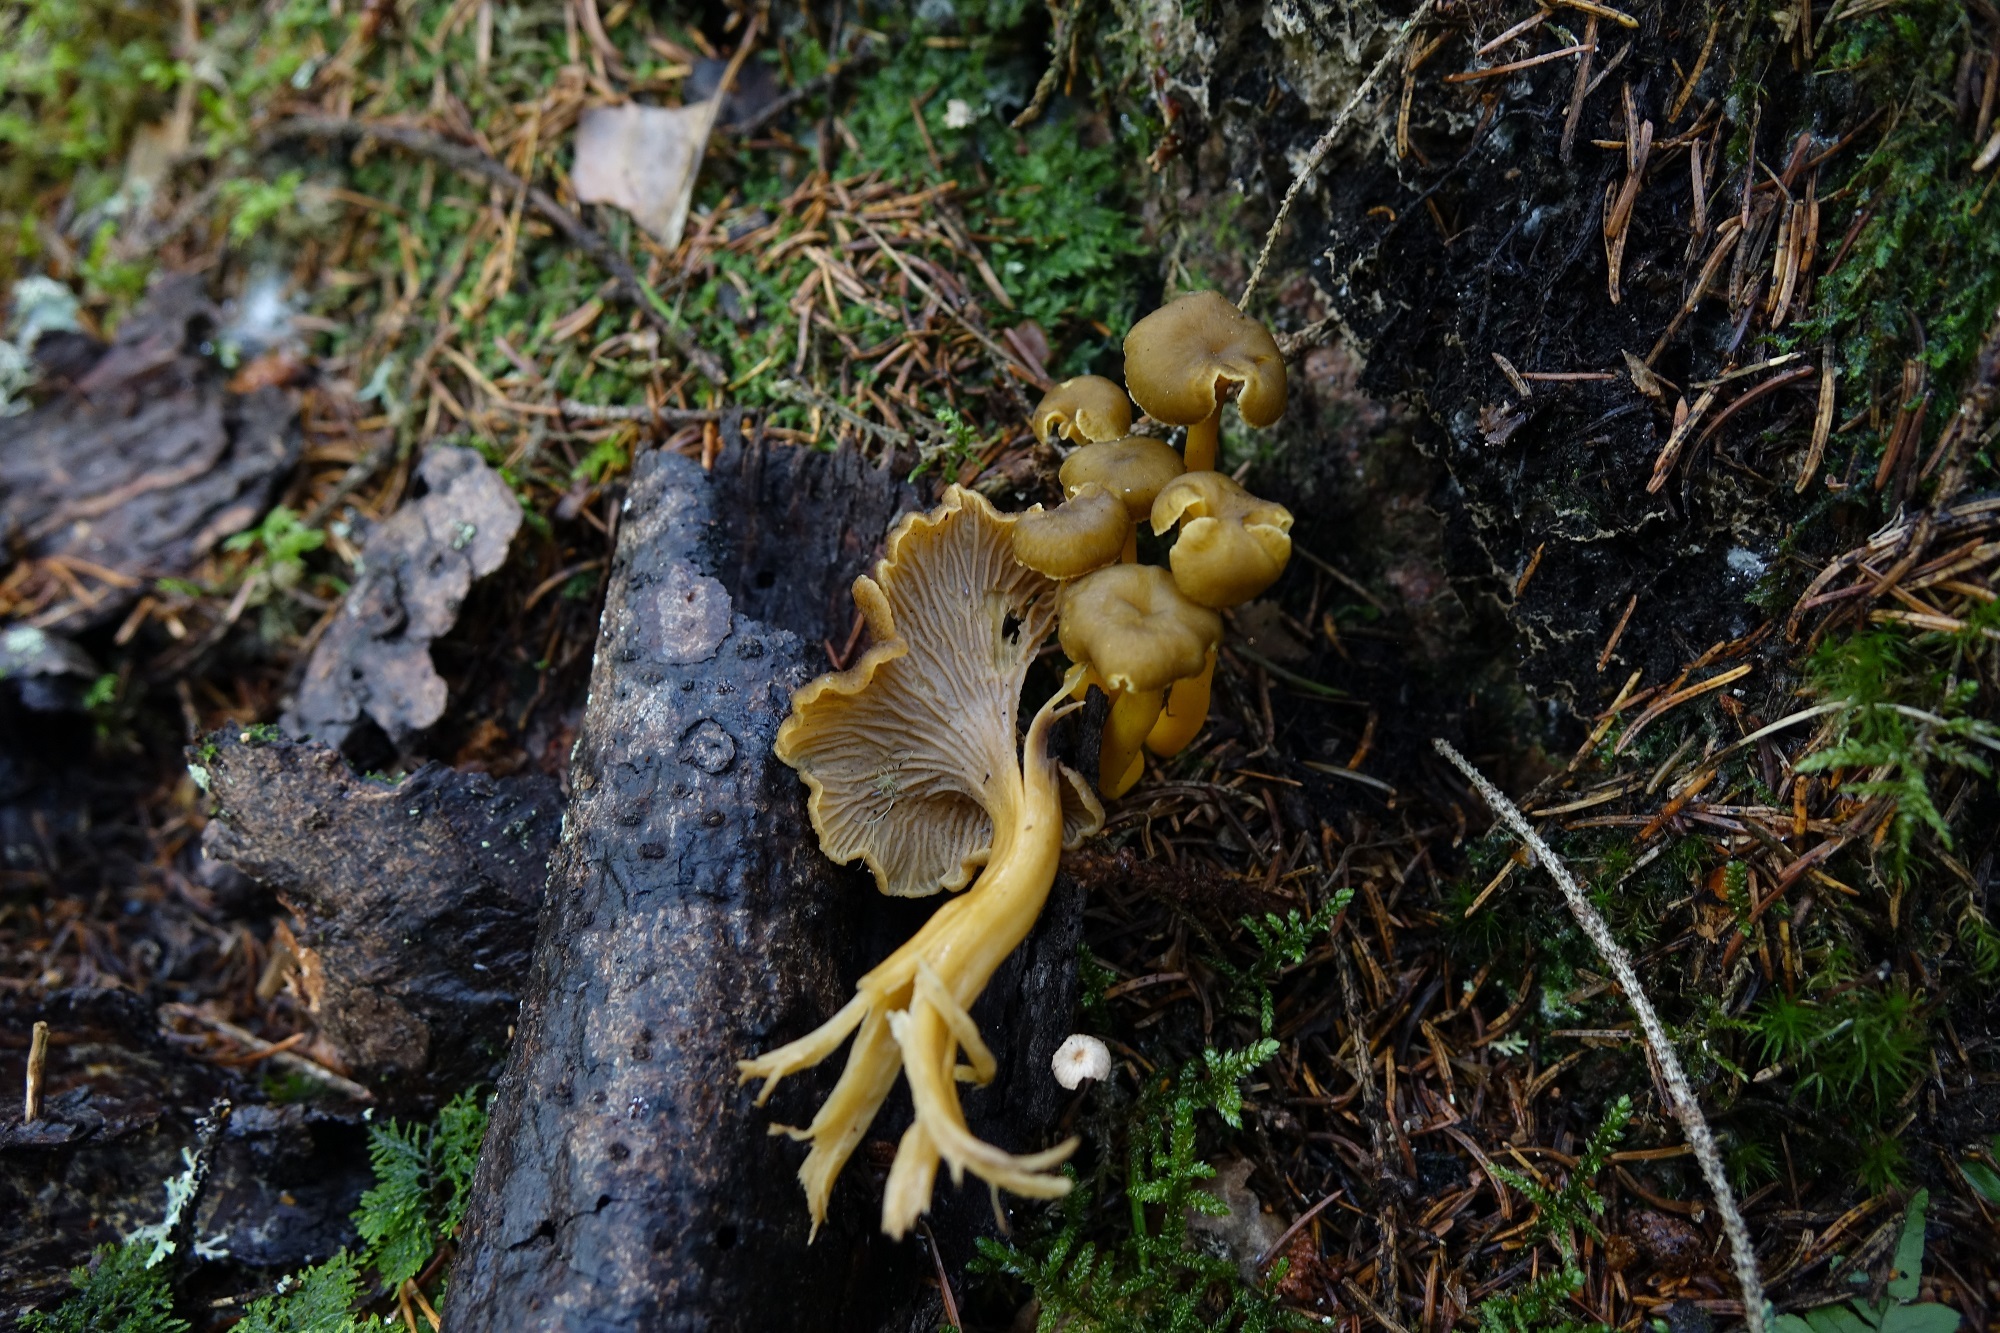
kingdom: Fungi
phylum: Basidiomycota
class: Agaricomycetes
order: Cantharellales
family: Hydnaceae
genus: Craterellus
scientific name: Craterellus tubaeformis
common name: Yellowfoot
